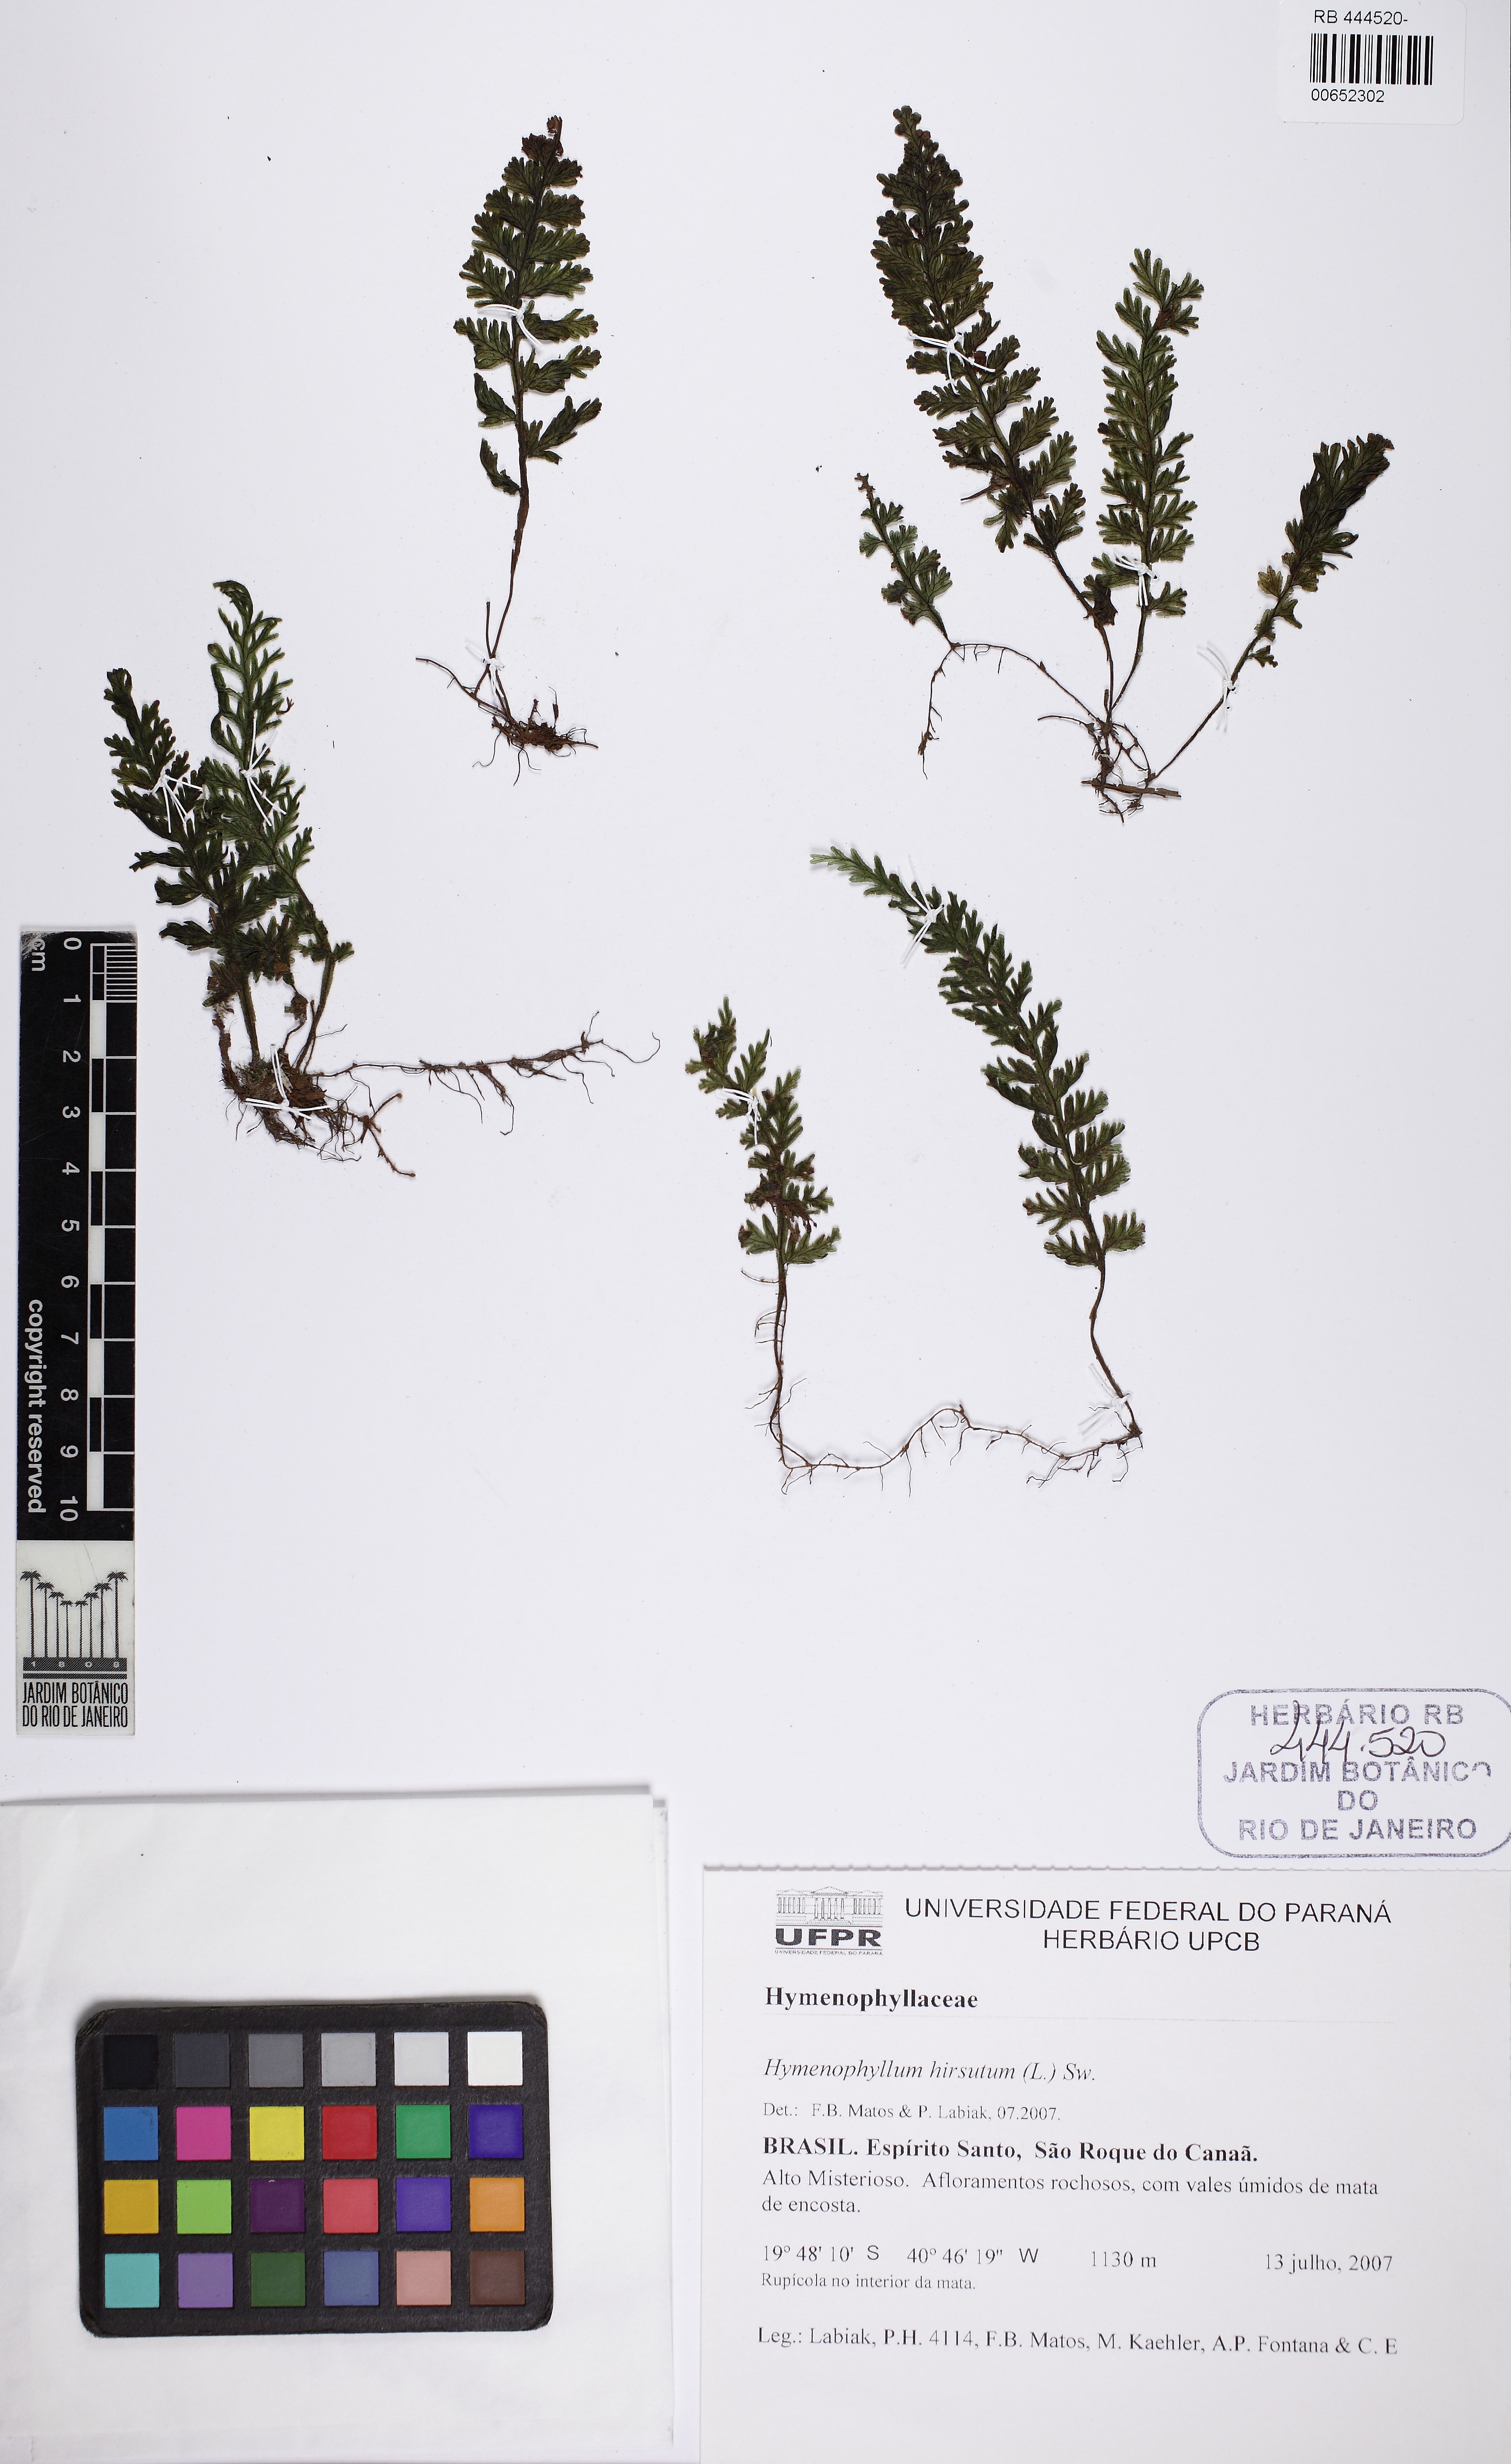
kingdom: Plantae
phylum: Tracheophyta
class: Polypodiopsida
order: Hymenophyllales
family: Hymenophyllaceae
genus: Hymenophyllum
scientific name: Hymenophyllum hirsutum
